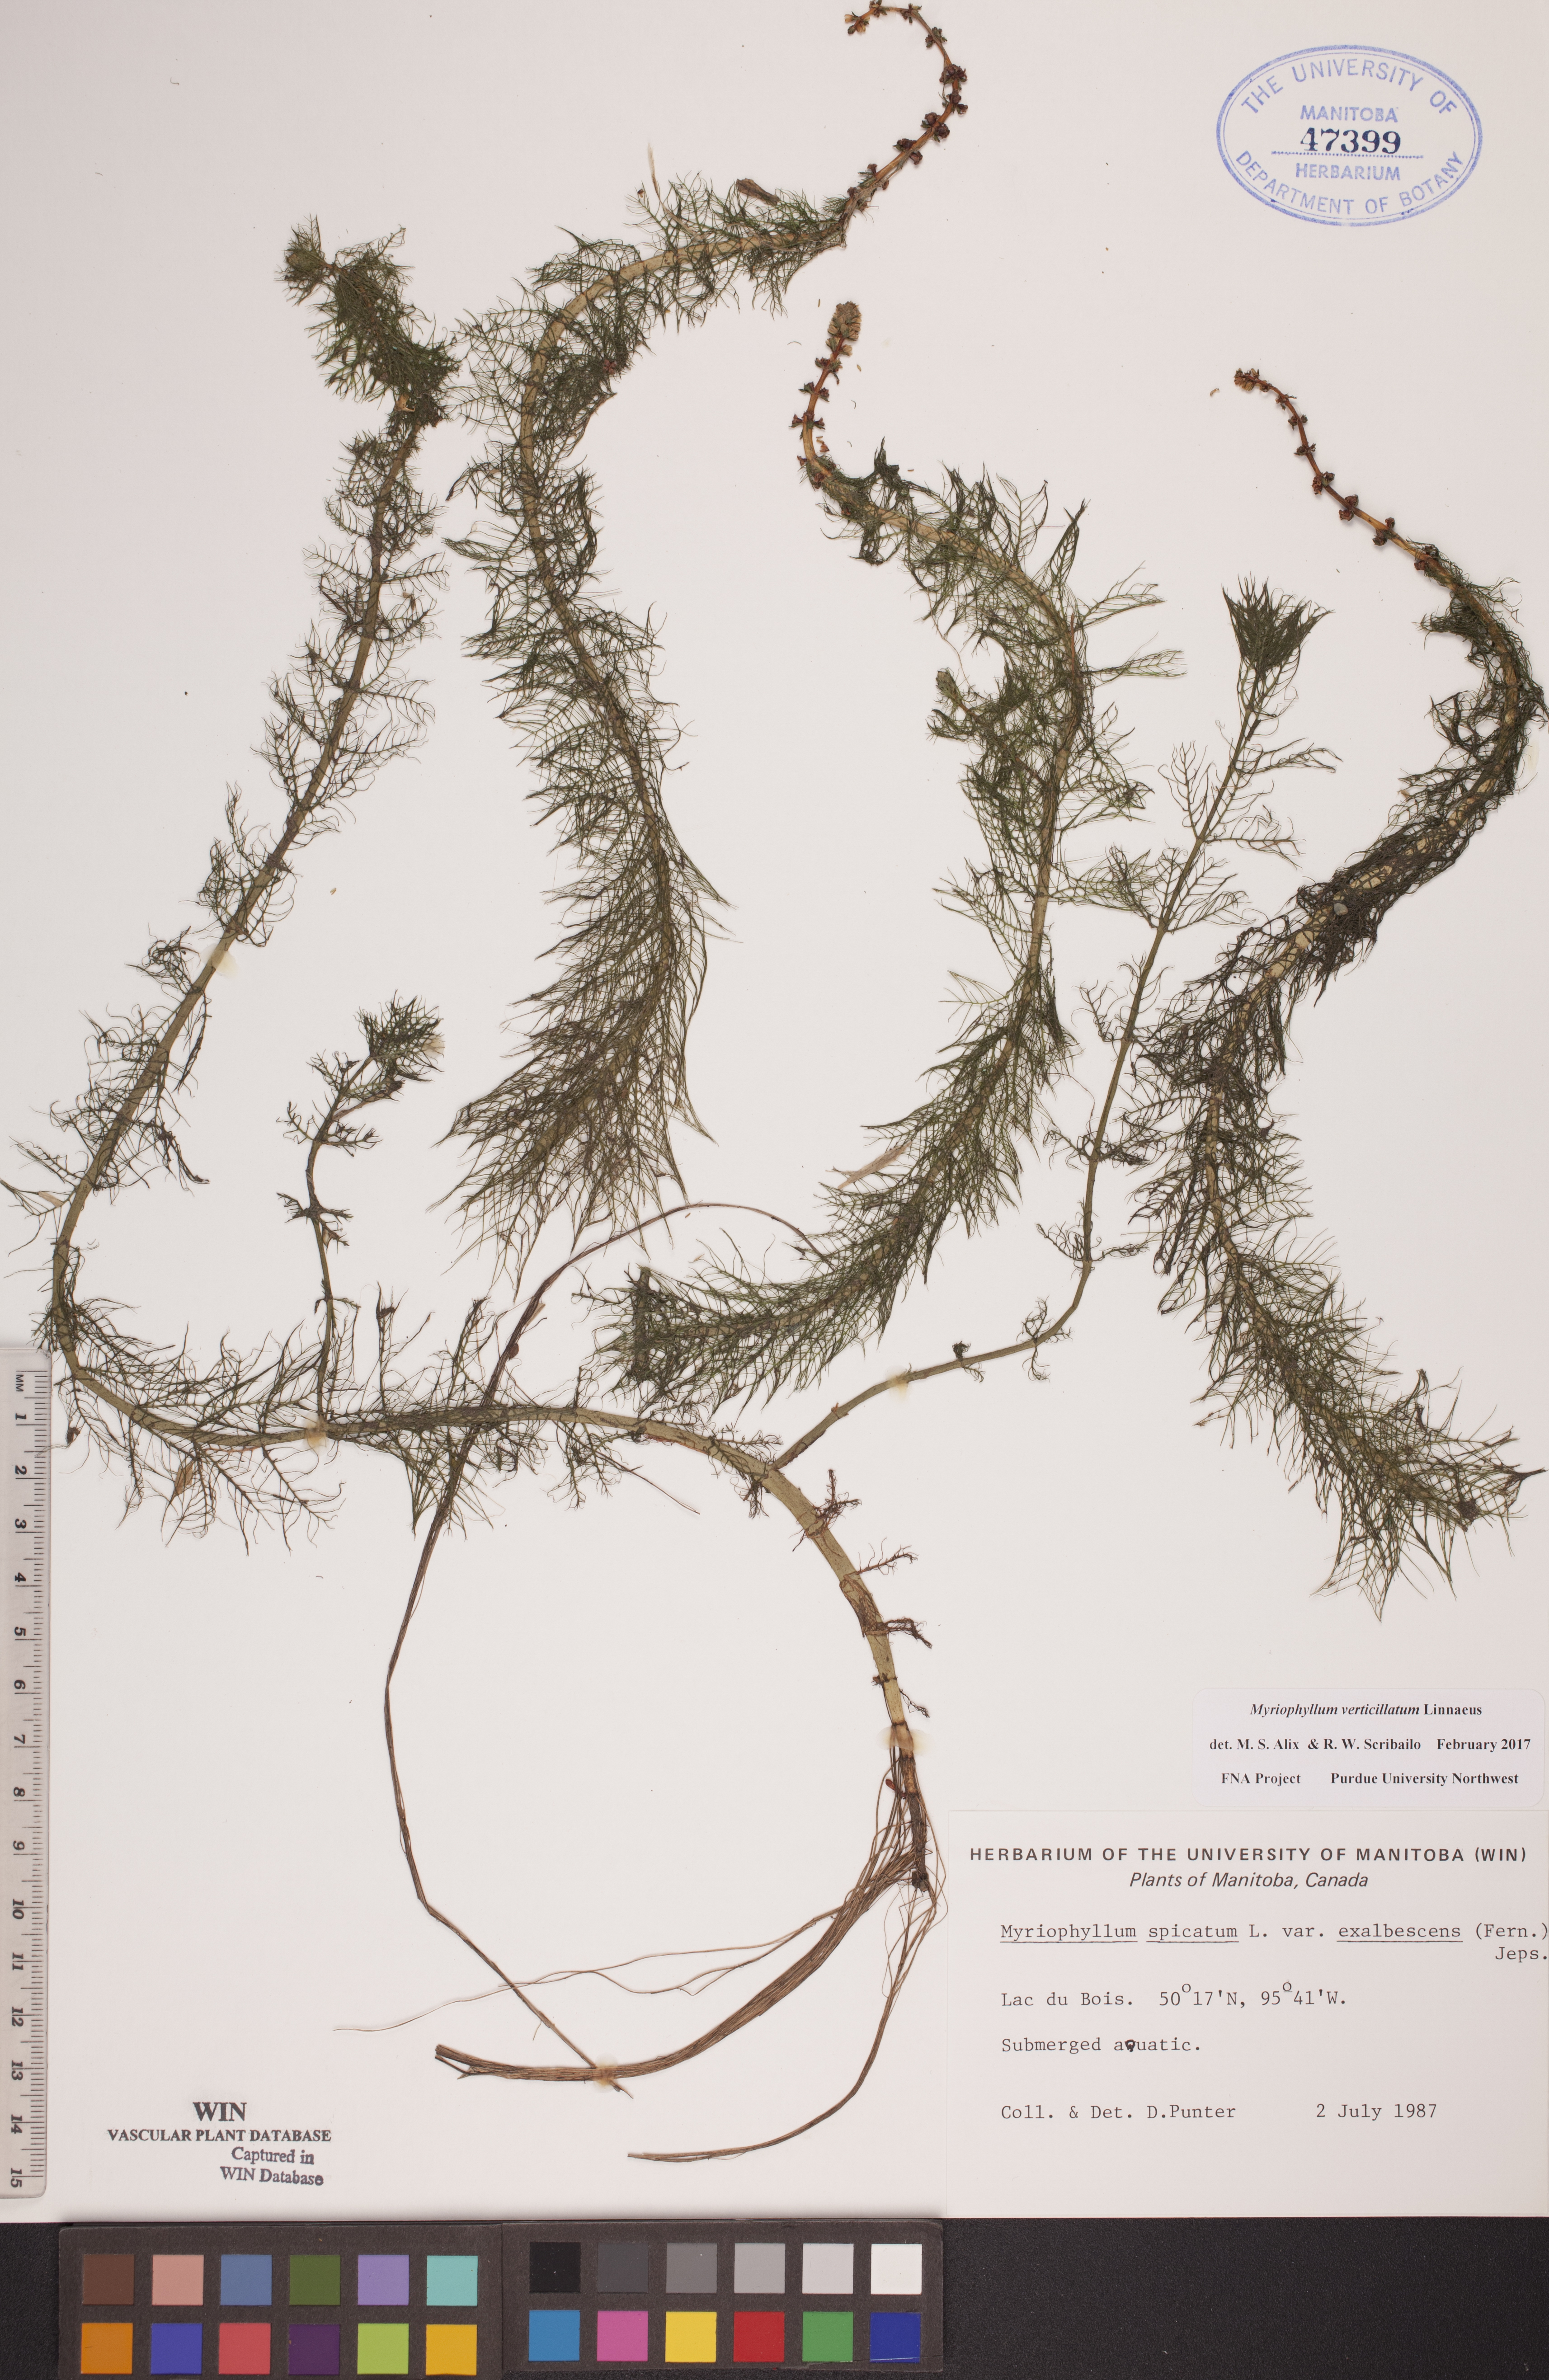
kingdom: Plantae
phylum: Tracheophyta
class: Magnoliopsida
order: Saxifragales
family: Haloragaceae
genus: Myriophyllum
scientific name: Myriophyllum verticillatum
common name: Whorled water-milfoil
